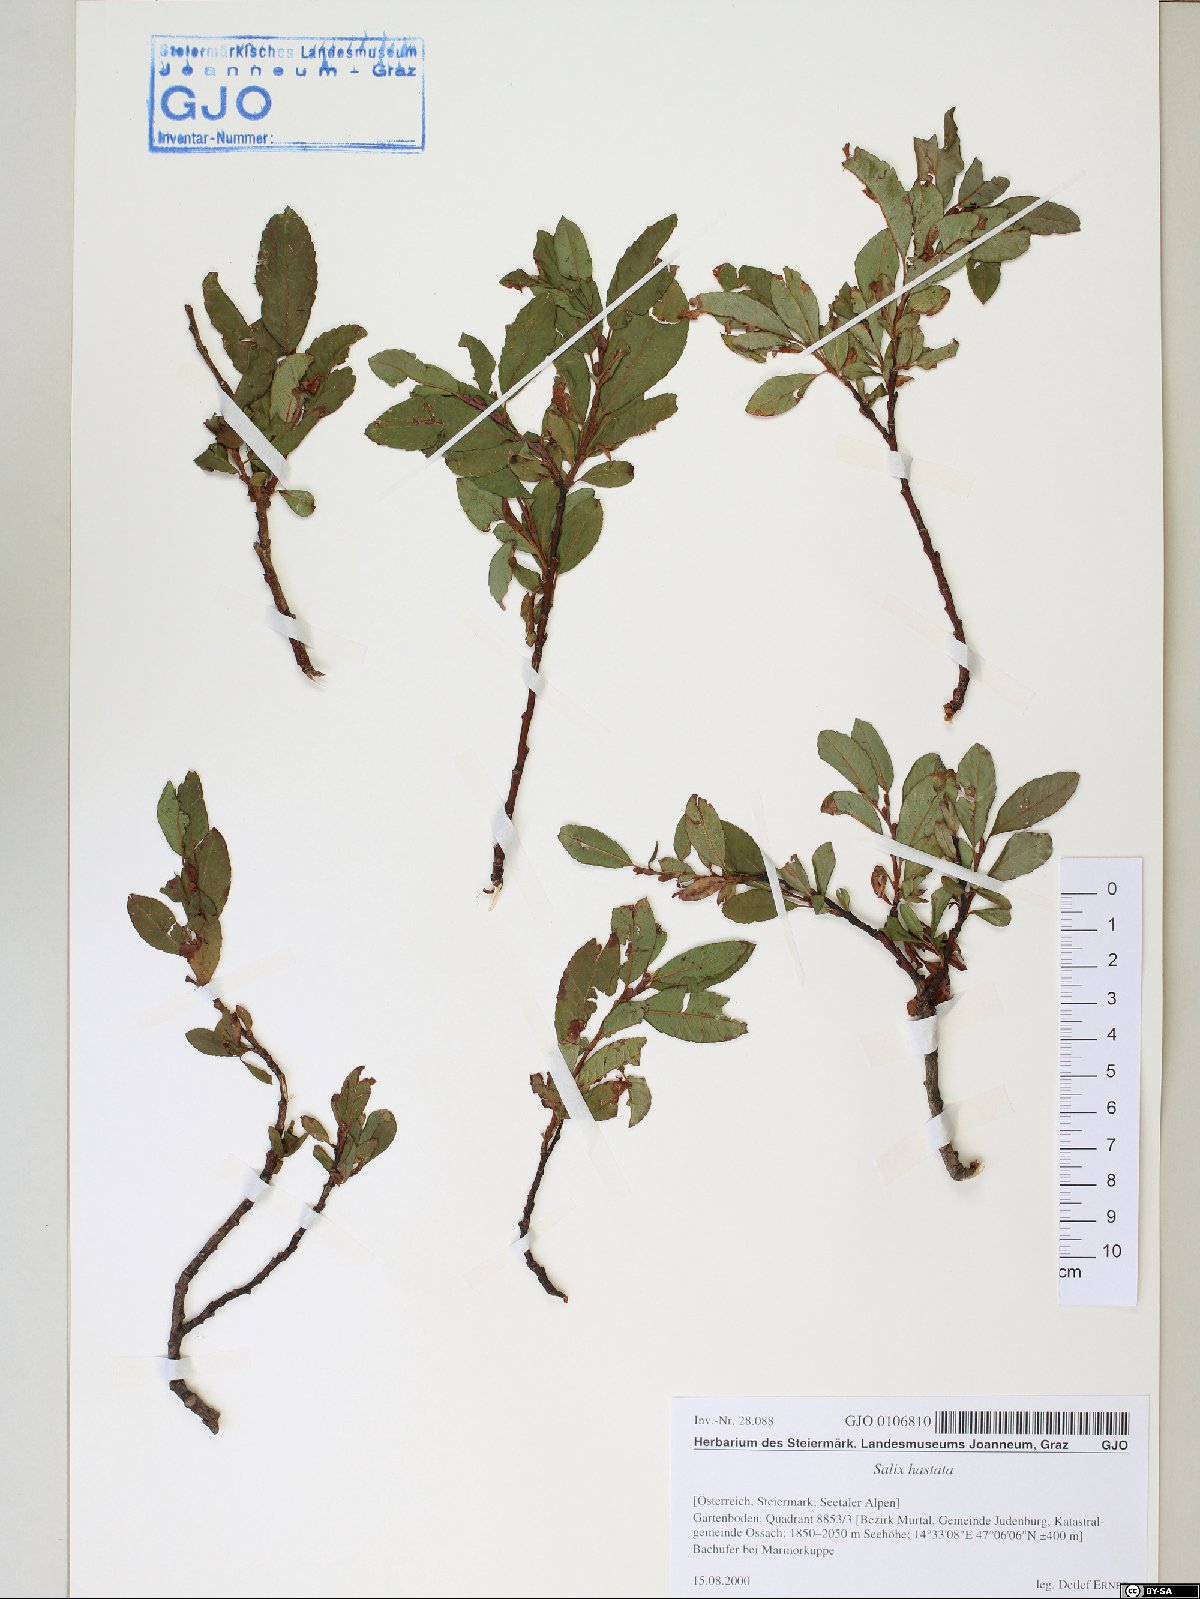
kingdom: Plantae
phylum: Tracheophyta
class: Magnoliopsida
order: Malpighiales
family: Salicaceae
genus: Salix
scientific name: Salix hastata
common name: Halberd willow
